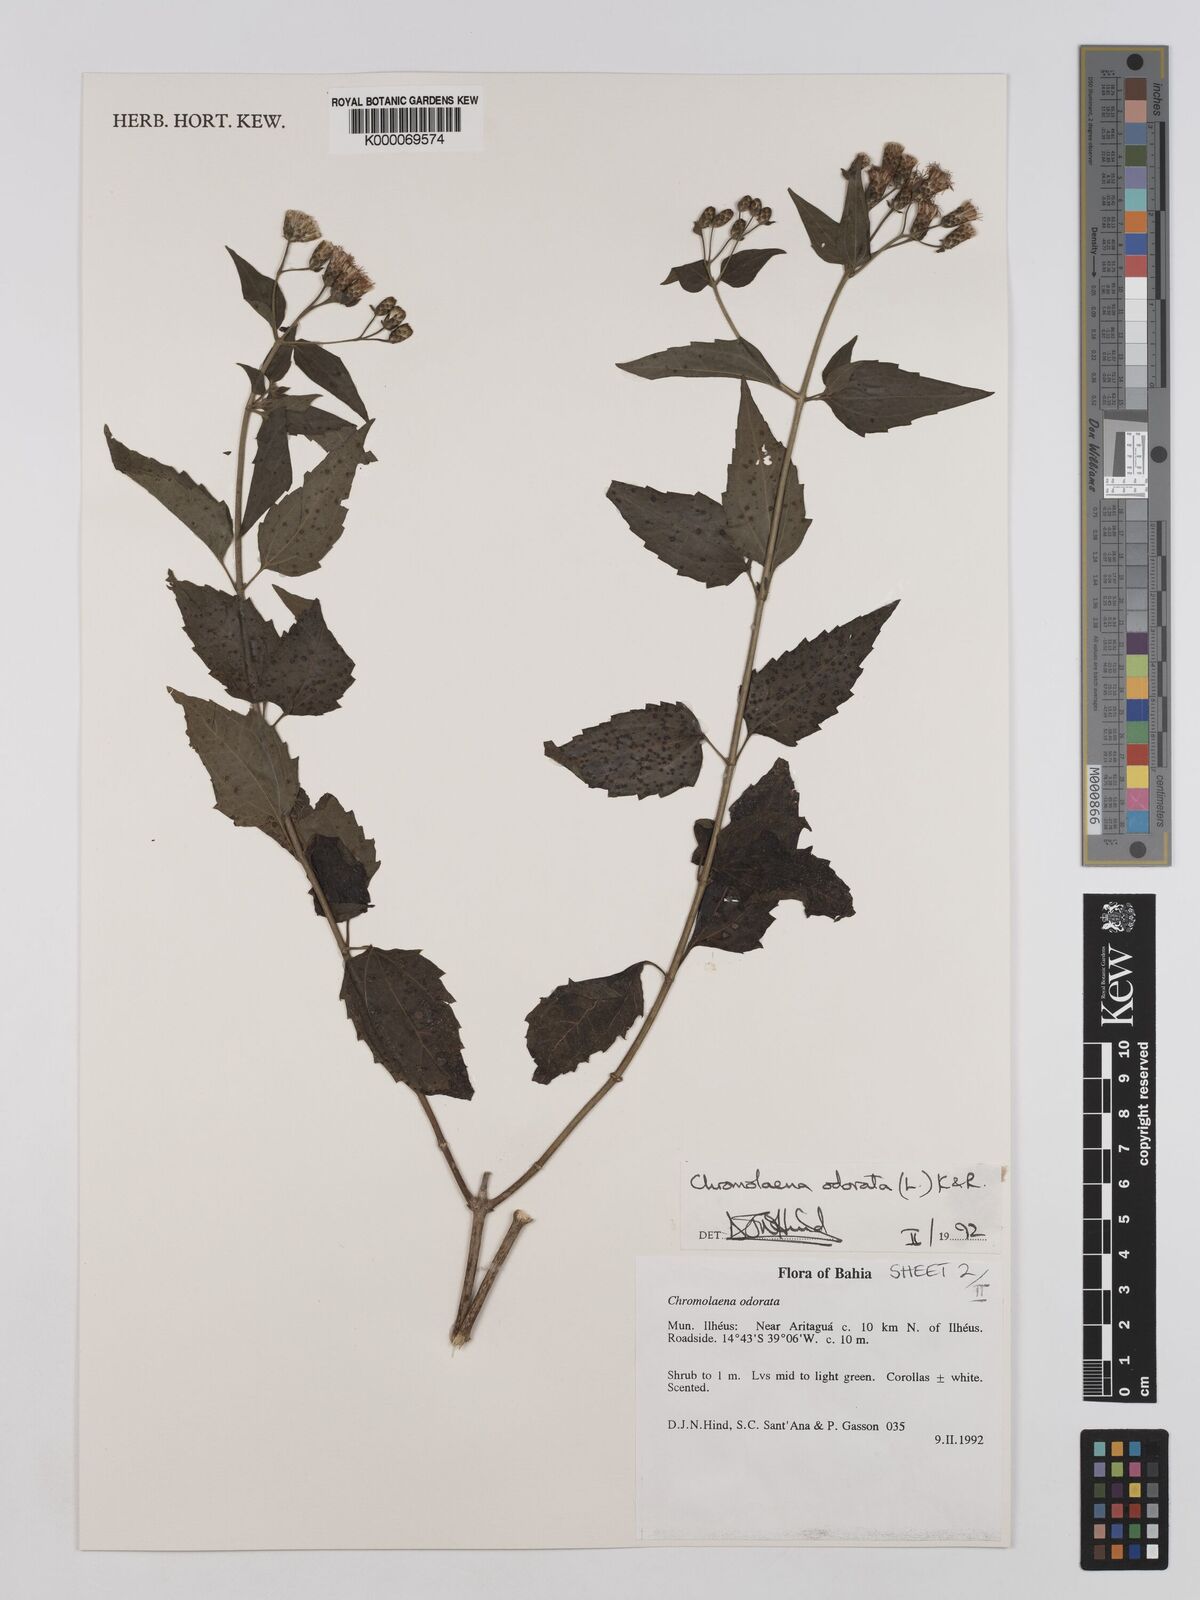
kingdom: Plantae
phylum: Tracheophyta
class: Magnoliopsida
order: Asterales
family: Asteraceae
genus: Chromolaena
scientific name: Chromolaena odorata
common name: Siamweed
